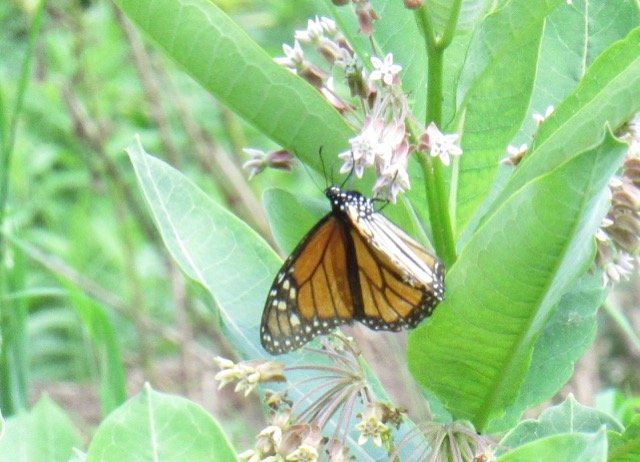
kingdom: Animalia
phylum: Arthropoda
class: Insecta
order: Lepidoptera
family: Nymphalidae
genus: Danaus
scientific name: Danaus plexippus
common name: Monarch
